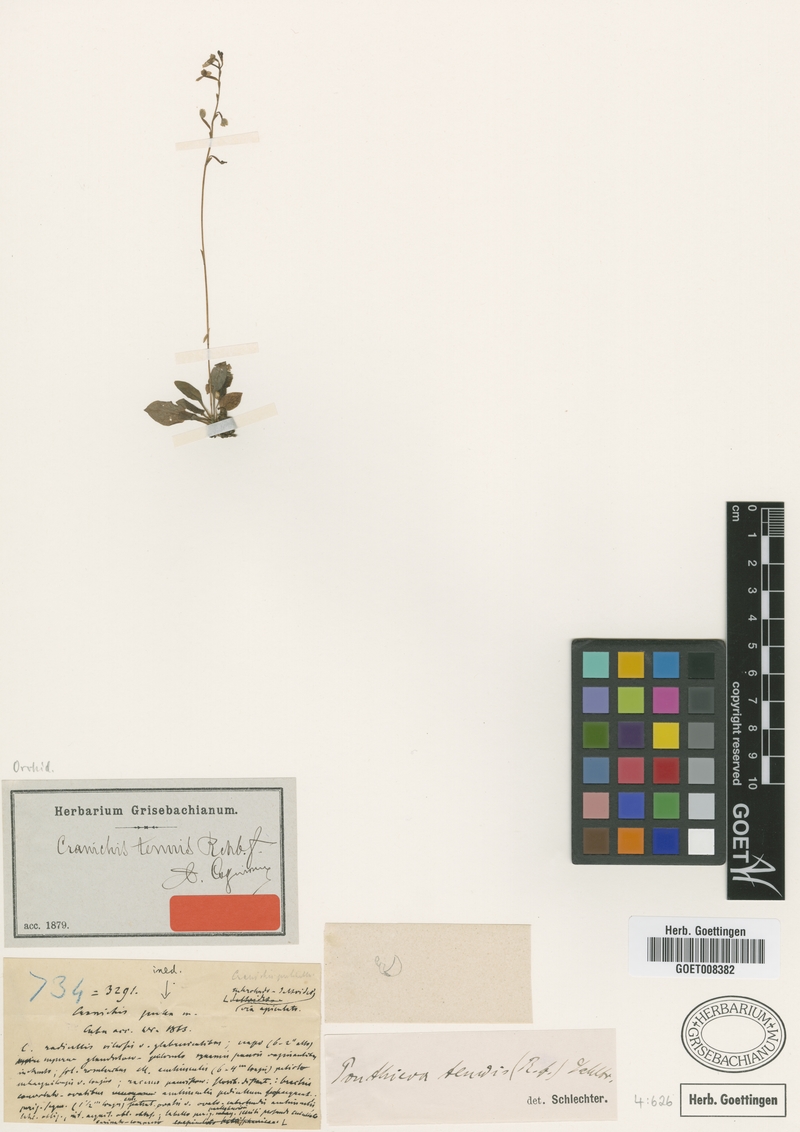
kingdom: Plantae
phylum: Tracheophyta
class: Liliopsida
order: Asparagales
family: Orchidaceae
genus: Cranichis
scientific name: Cranichis tenuis
